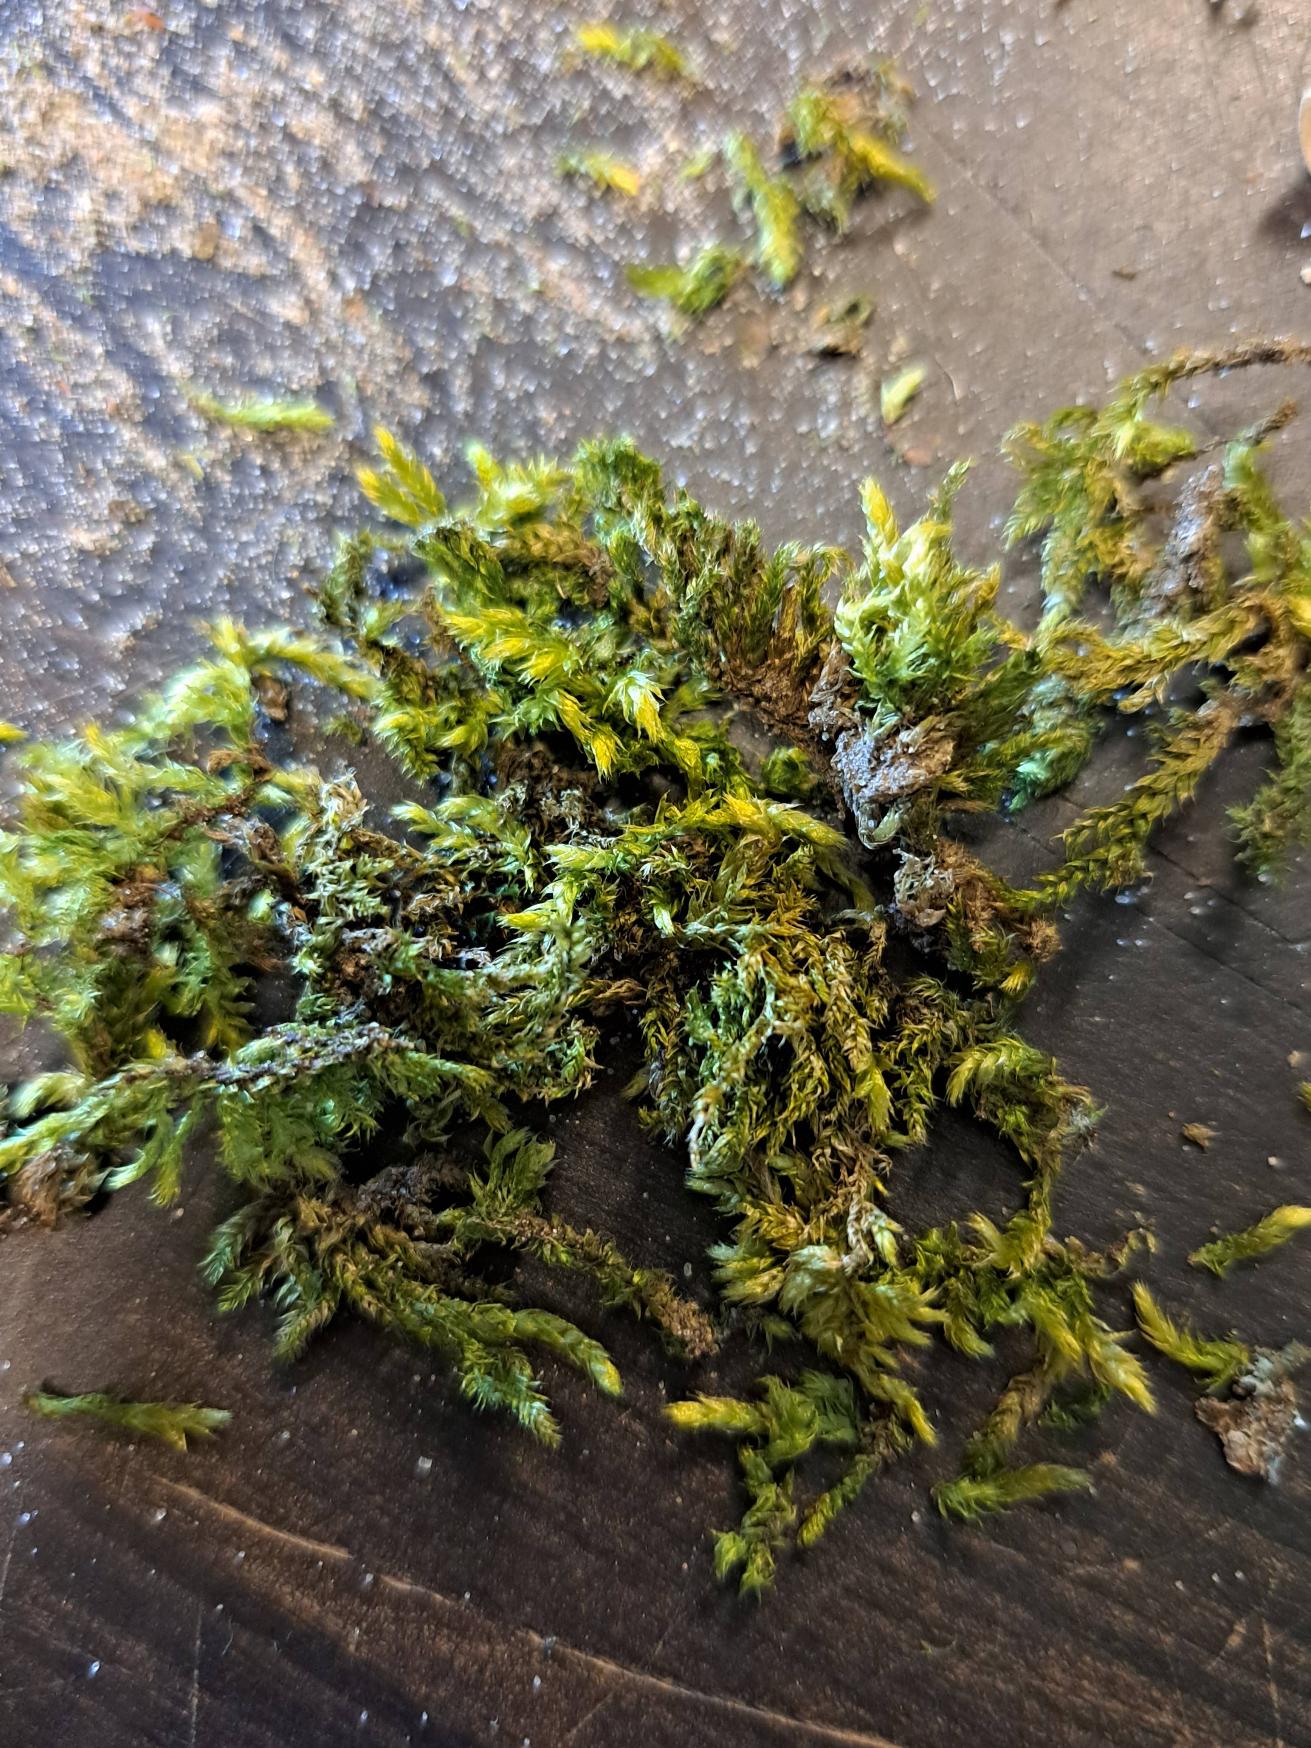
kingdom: Plantae
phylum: Bryophyta
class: Bryopsida
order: Hypnales
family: Brachytheciaceae
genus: Brachythecium
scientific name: Brachythecium rutabulum
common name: Almindelig kortkapsel
